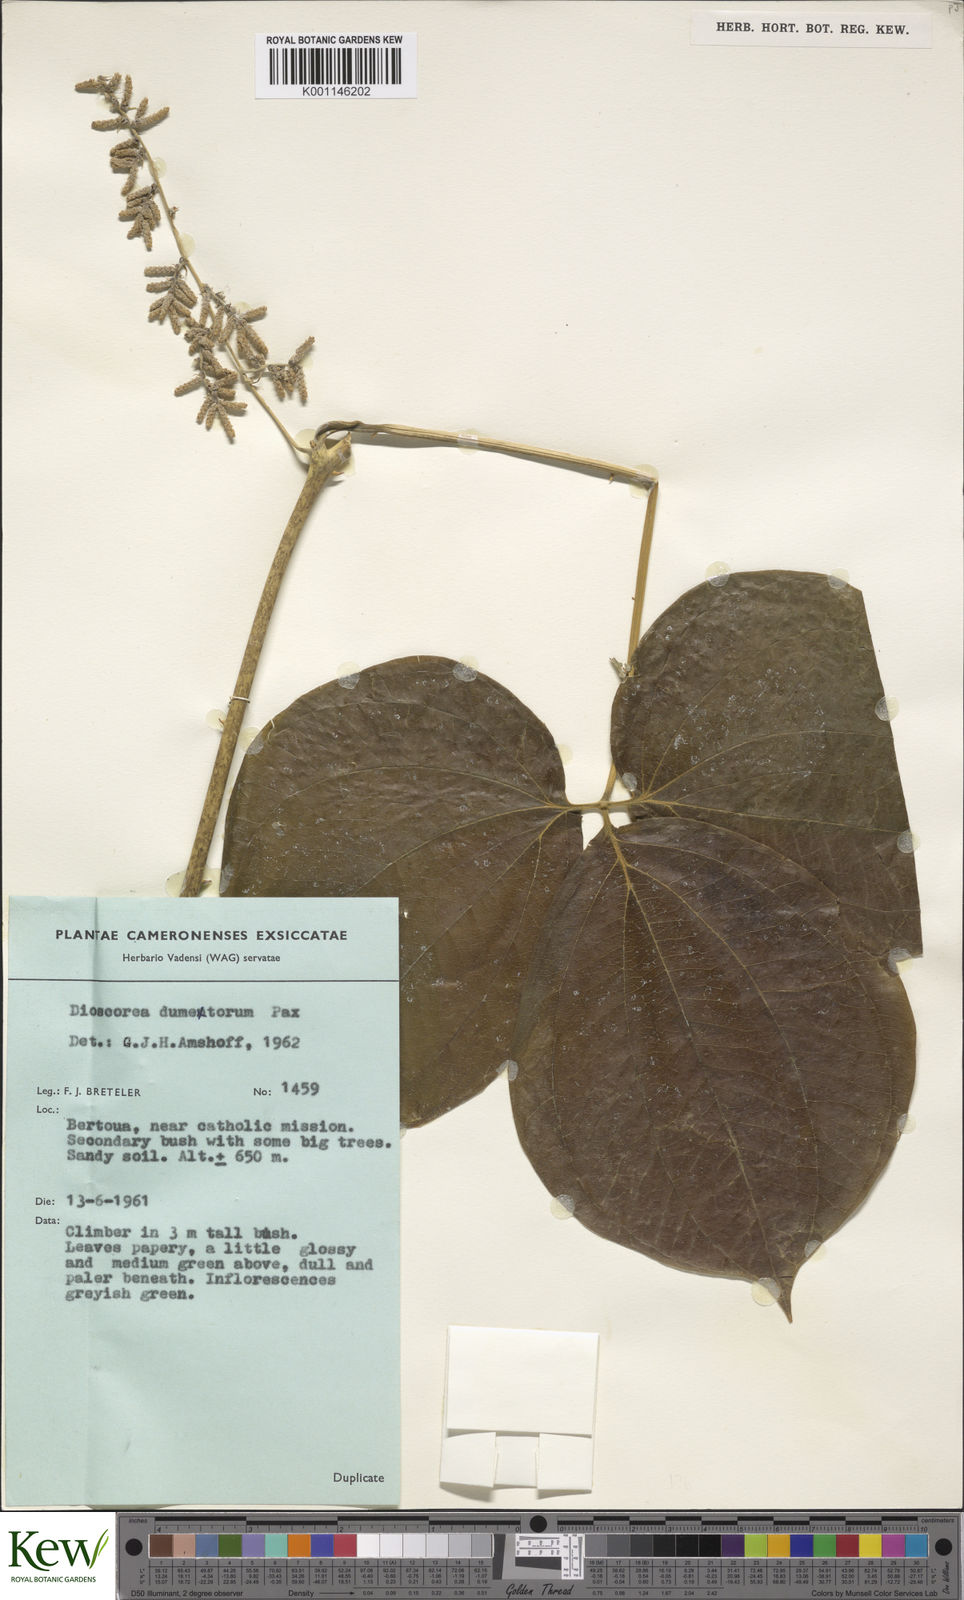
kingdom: Plantae
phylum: Tracheophyta
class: Liliopsida
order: Dioscoreales
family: Dioscoreaceae
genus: Dioscorea
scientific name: Dioscorea dumetorum
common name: African bitter yam
